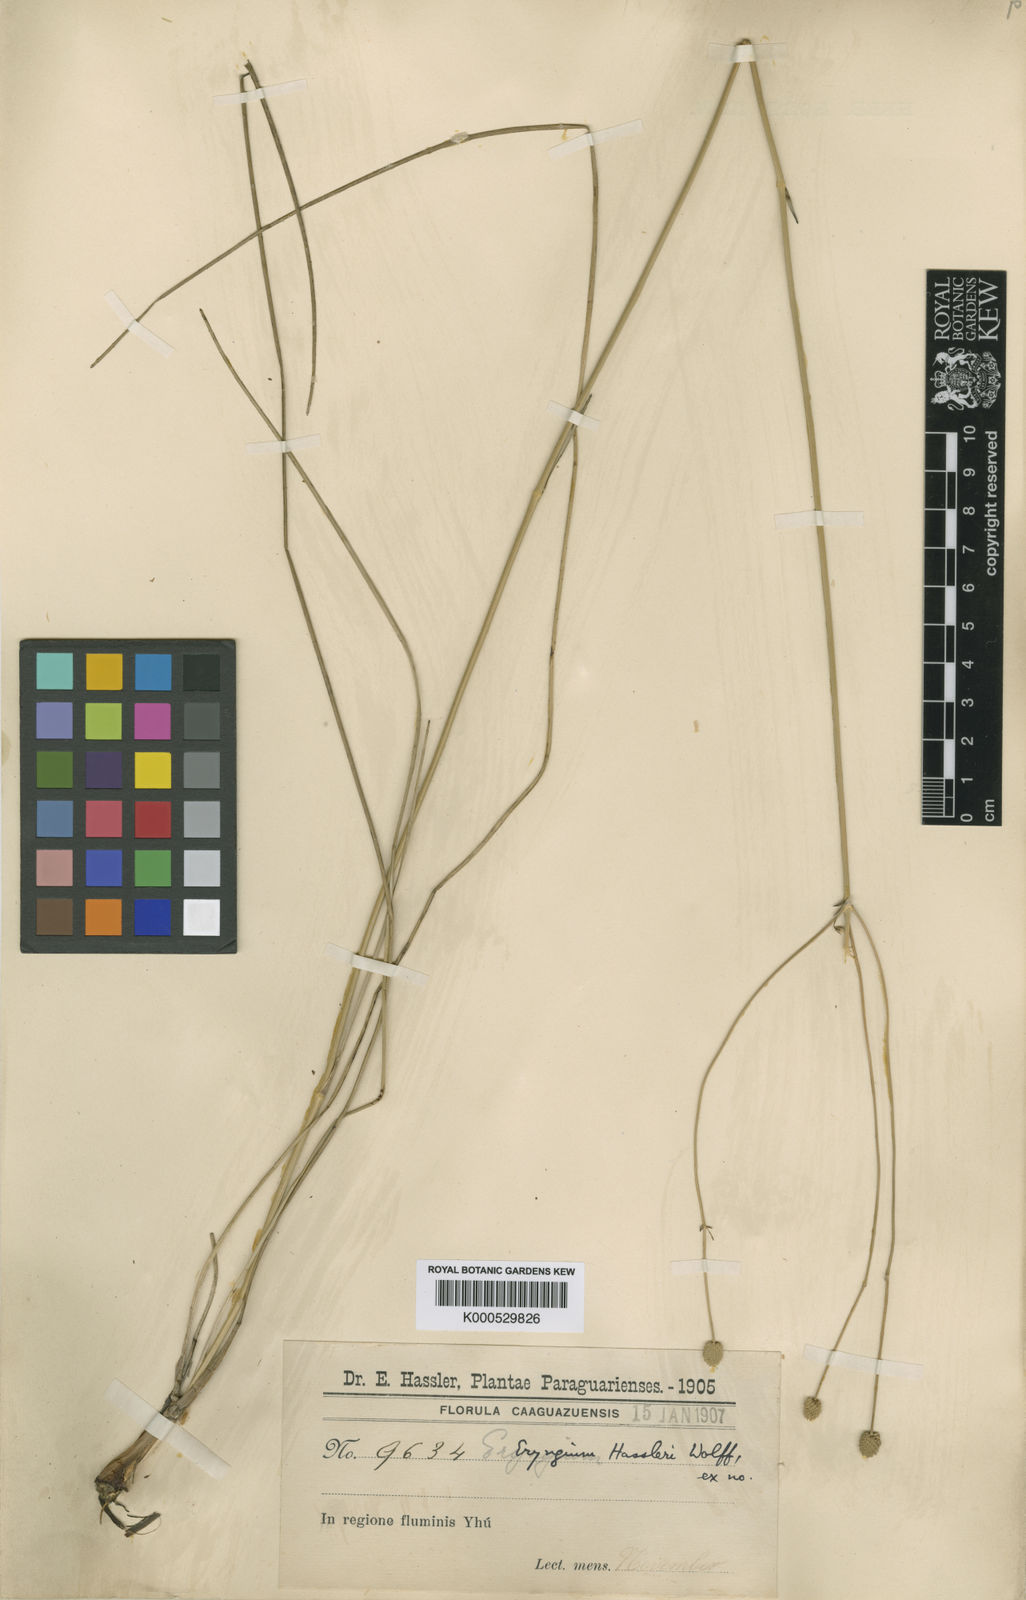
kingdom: Plantae
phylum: Tracheophyta
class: Magnoliopsida
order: Apiales
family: Apiaceae
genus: Eryngium
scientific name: Eryngium hassleri
